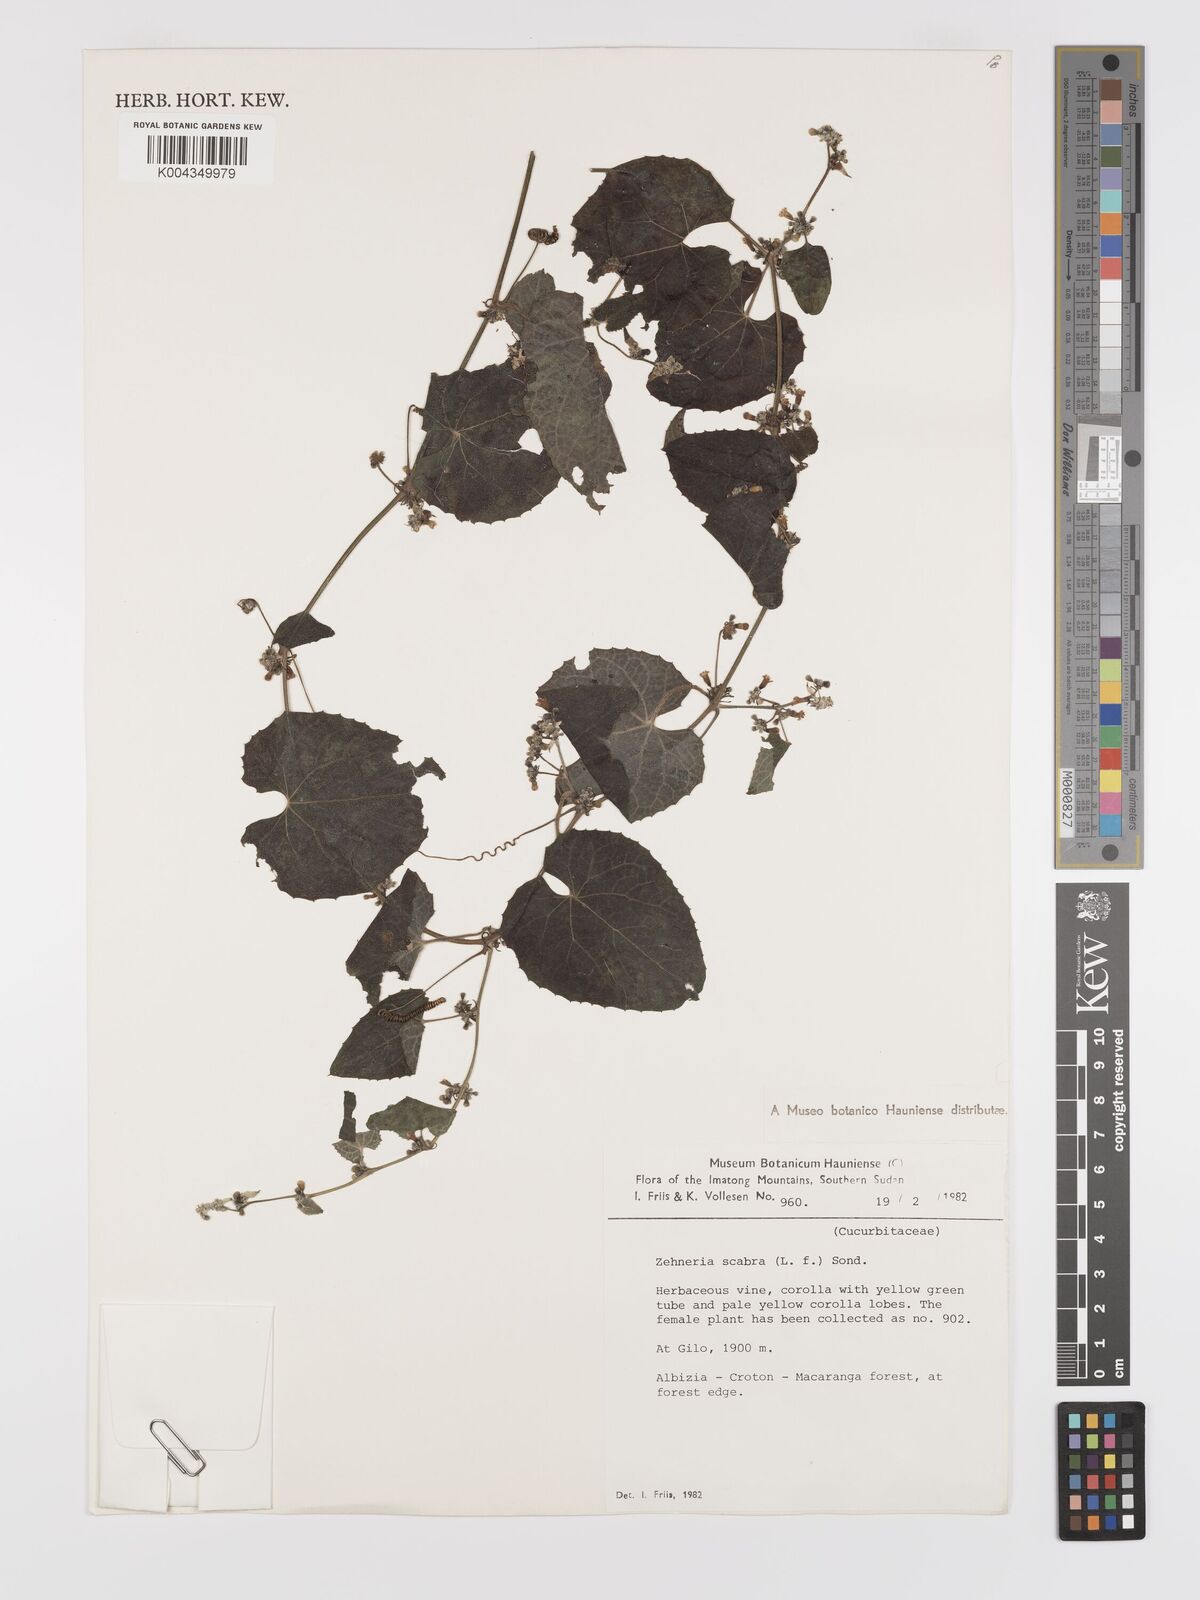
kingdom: Plantae
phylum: Tracheophyta
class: Magnoliopsida
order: Cucurbitales
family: Cucurbitaceae
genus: Zehneria
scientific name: Zehneria scabra
